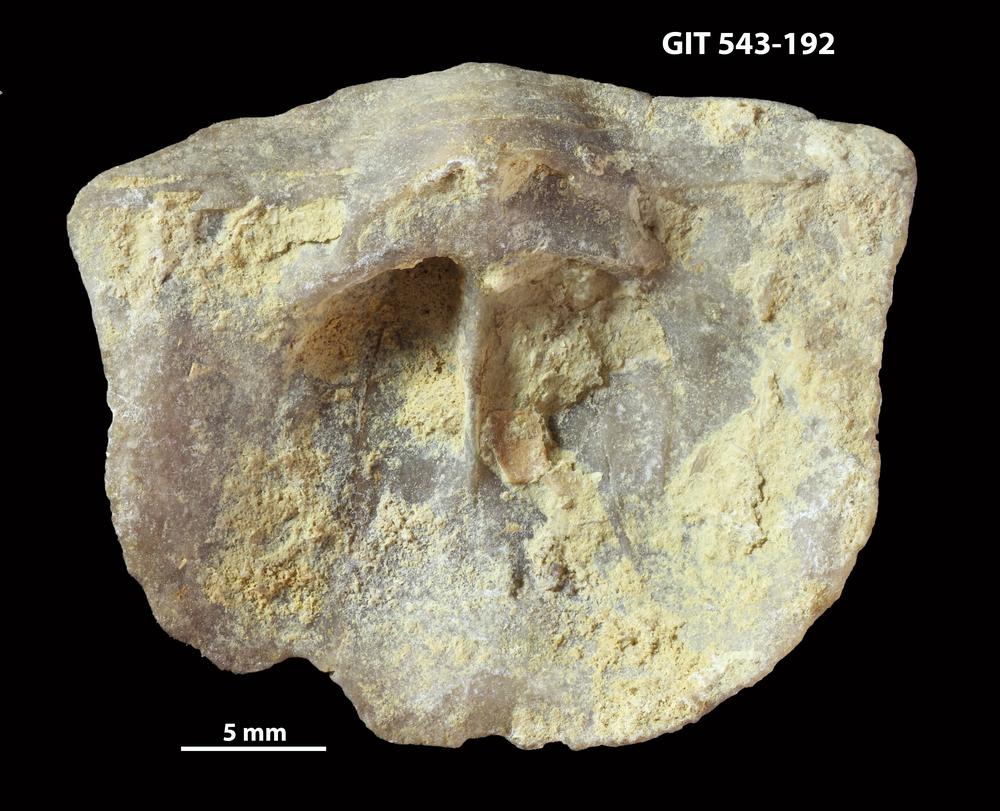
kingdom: Animalia
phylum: Brachiopoda
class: Rhynchonellata
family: Clitambonitidae
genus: Clinambon
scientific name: Clinambon anomalus
